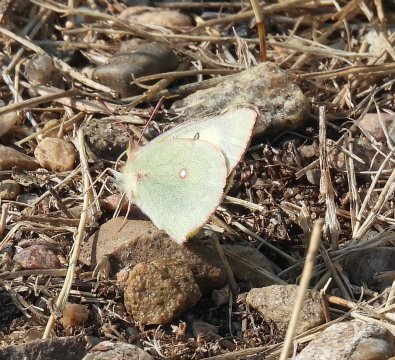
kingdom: Animalia
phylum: Arthropoda
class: Insecta
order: Lepidoptera
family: Pieridae
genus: Colias
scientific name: Colias interior
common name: Pink-edged Sulphur
